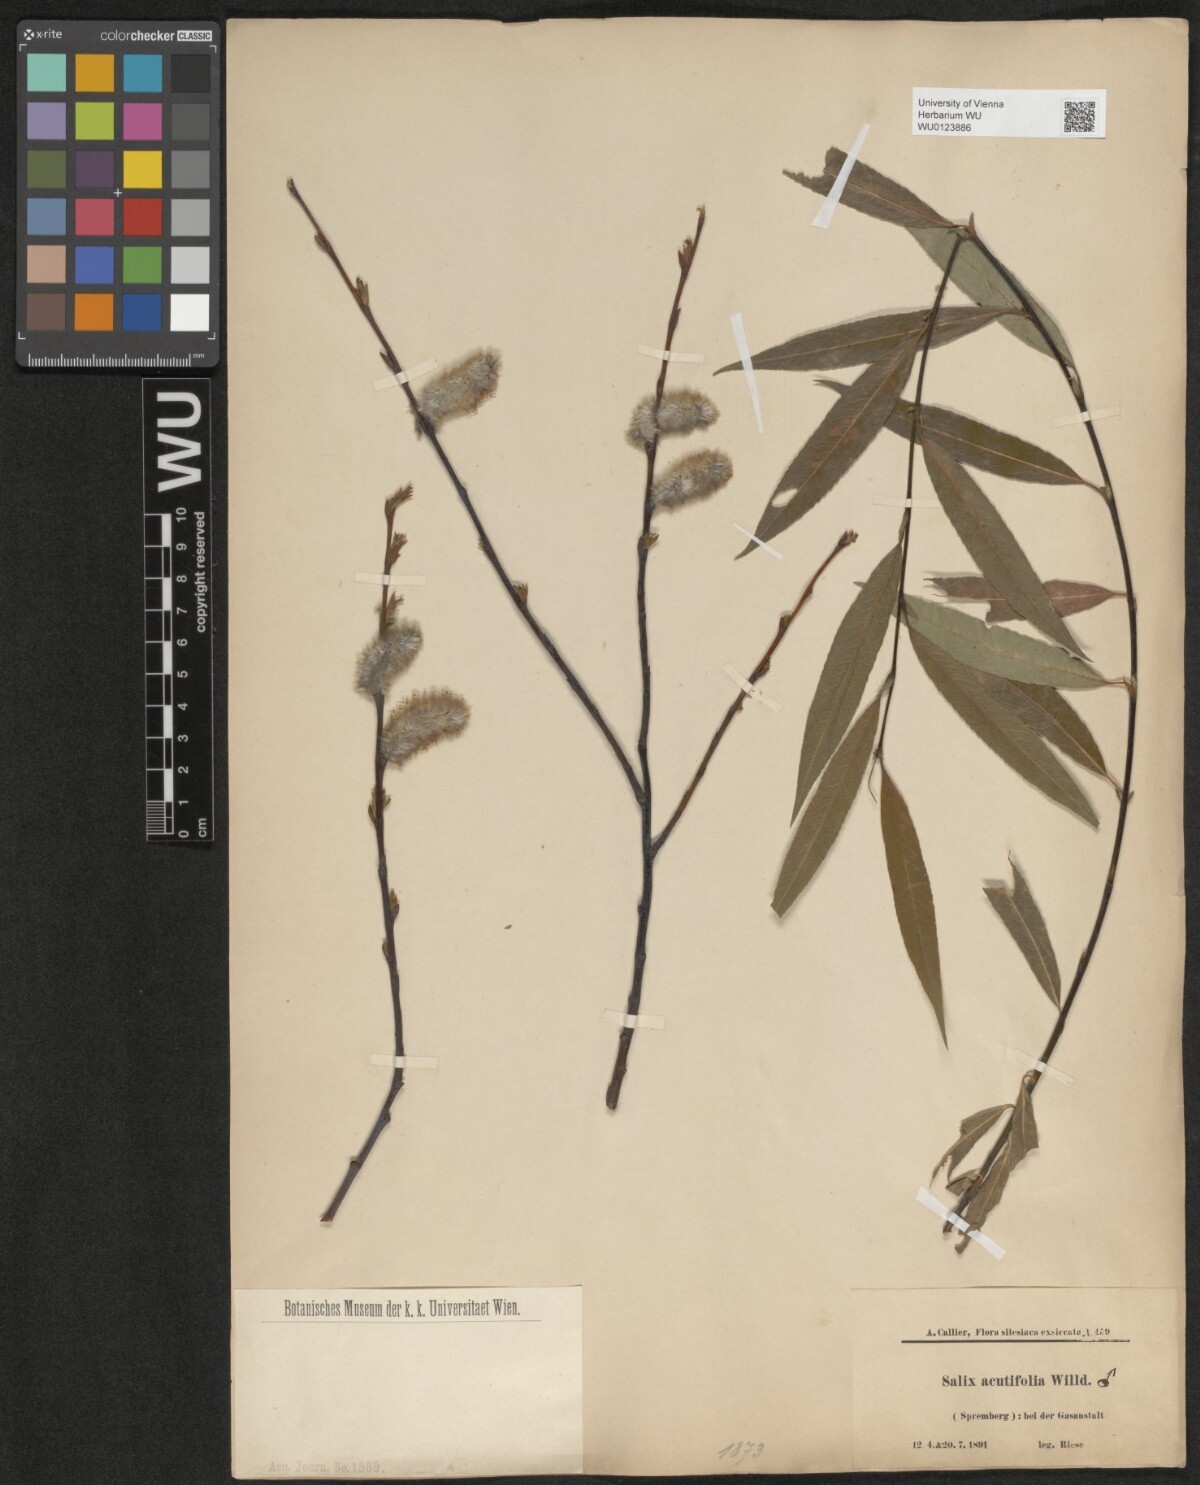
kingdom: Plantae
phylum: Tracheophyta
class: Magnoliopsida
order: Malpighiales
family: Salicaceae
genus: Salix
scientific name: Salix acutifolia
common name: Siberian violet-willow
